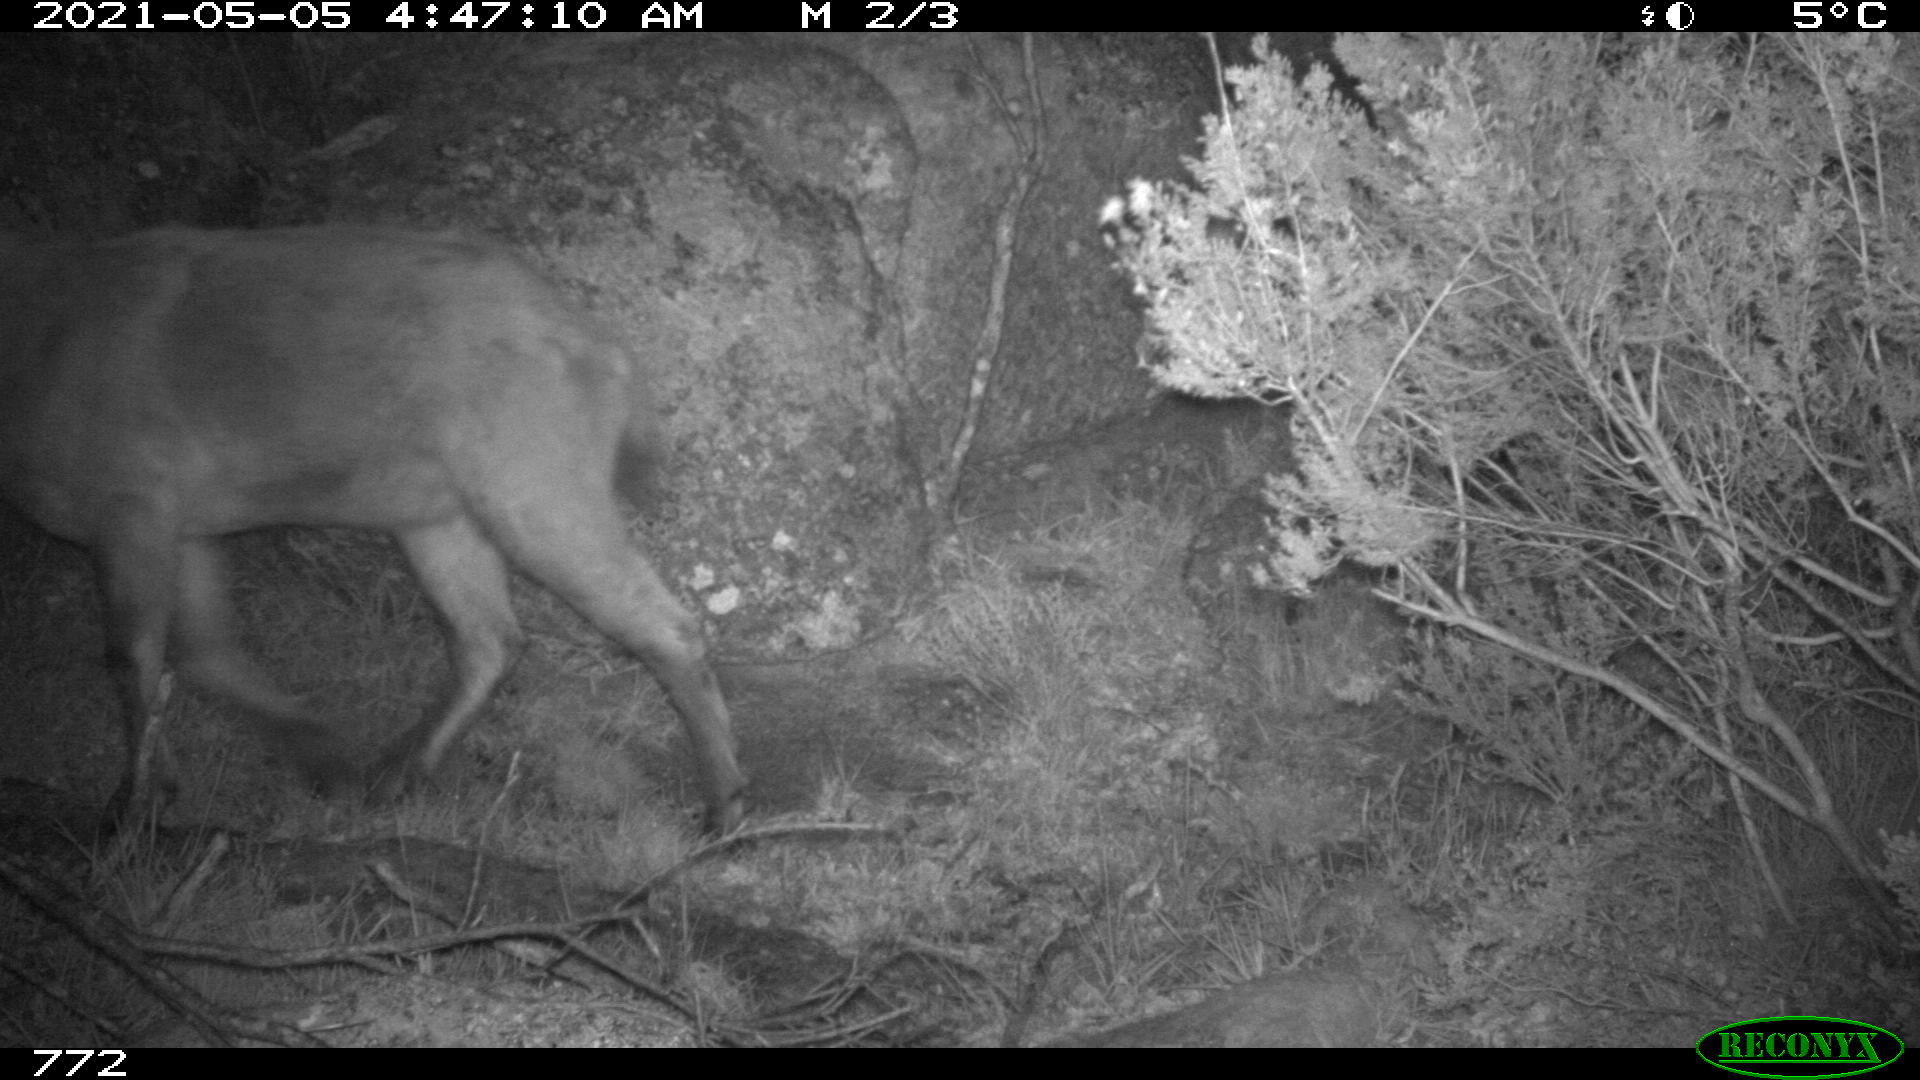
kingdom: Animalia
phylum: Chordata
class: Mammalia
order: Artiodactyla
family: Bovidae
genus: Capra
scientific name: Capra pyrenaica
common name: Spanish ibex
